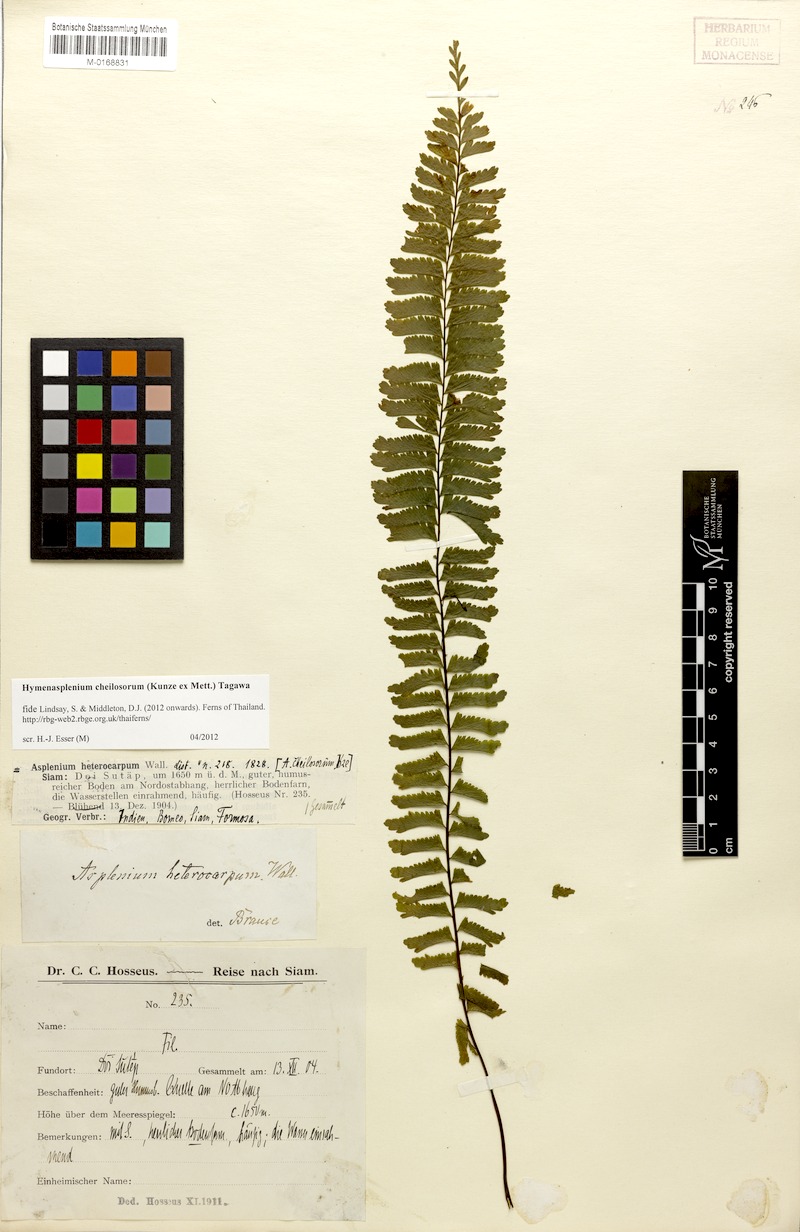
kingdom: Plantae
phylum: Tracheophyta
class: Polypodiopsida
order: Polypodiales
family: Aspleniaceae
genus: Hymenasplenium
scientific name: Hymenasplenium cheilosorum
